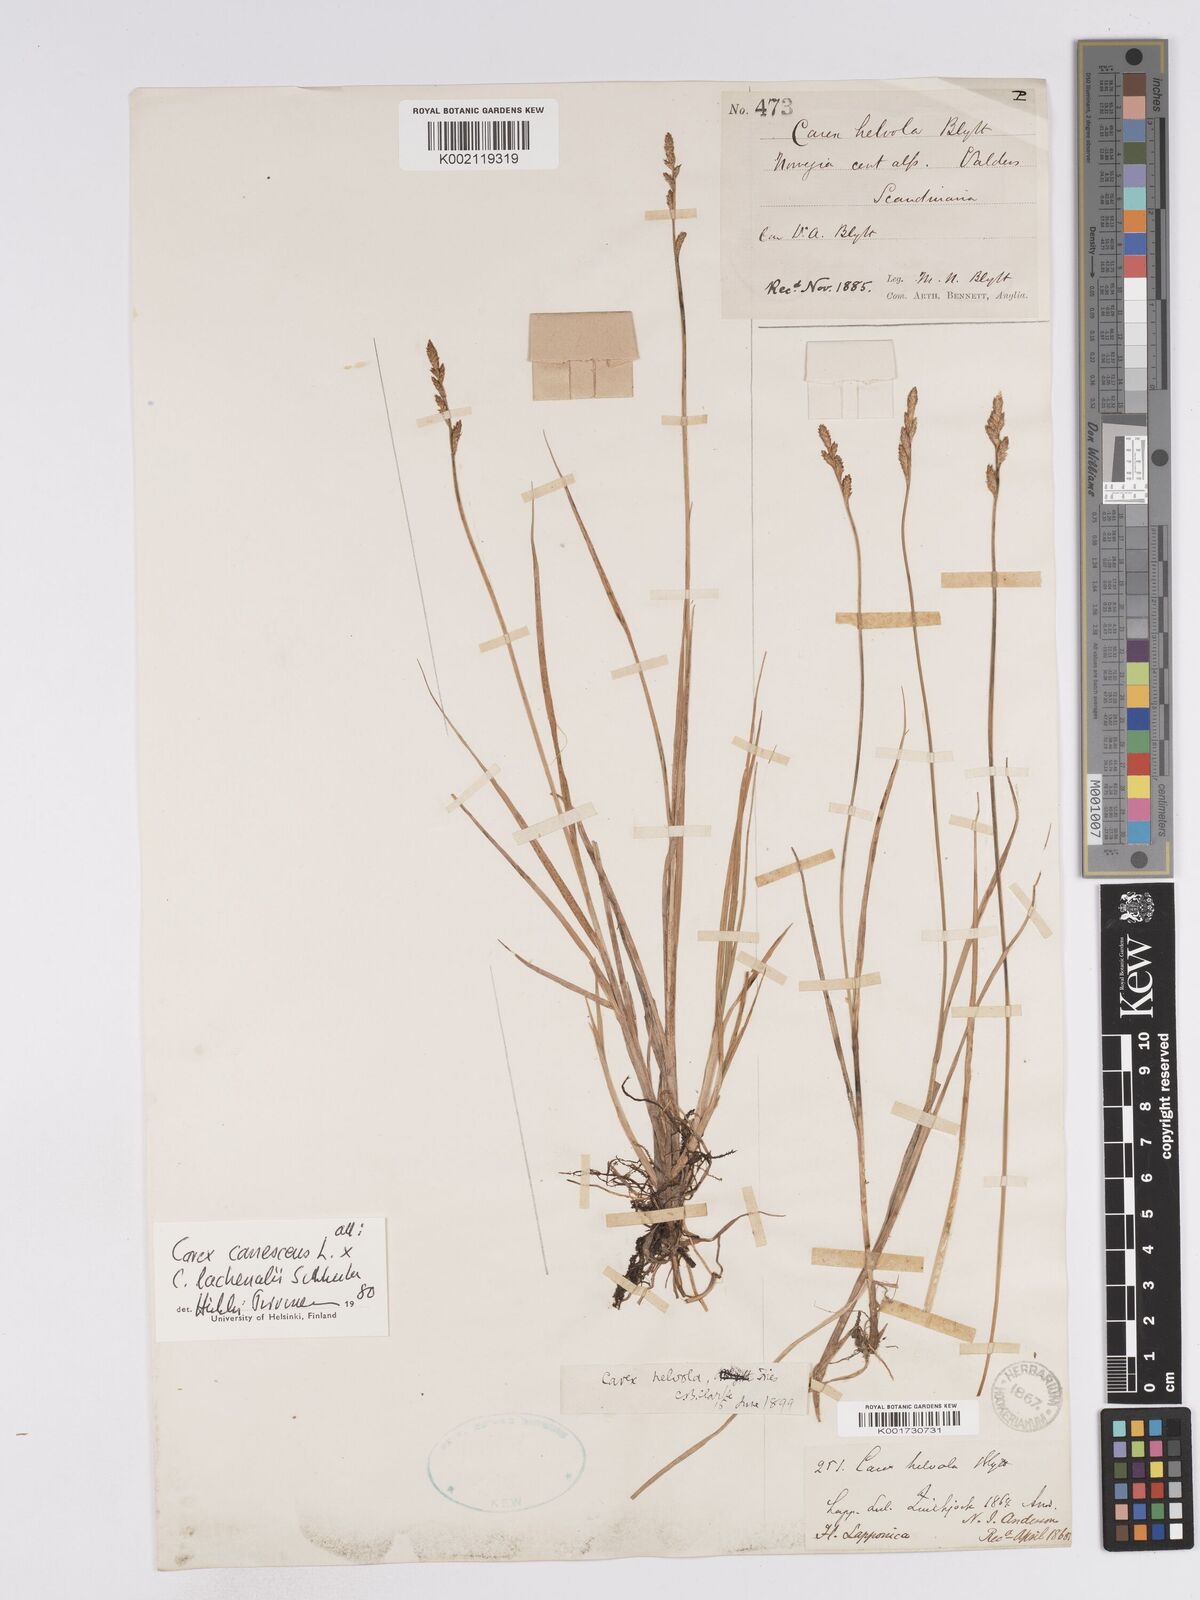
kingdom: Plantae
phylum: Tracheophyta
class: Liliopsida
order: Poales
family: Cyperaceae
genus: Carex
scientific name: Carex
